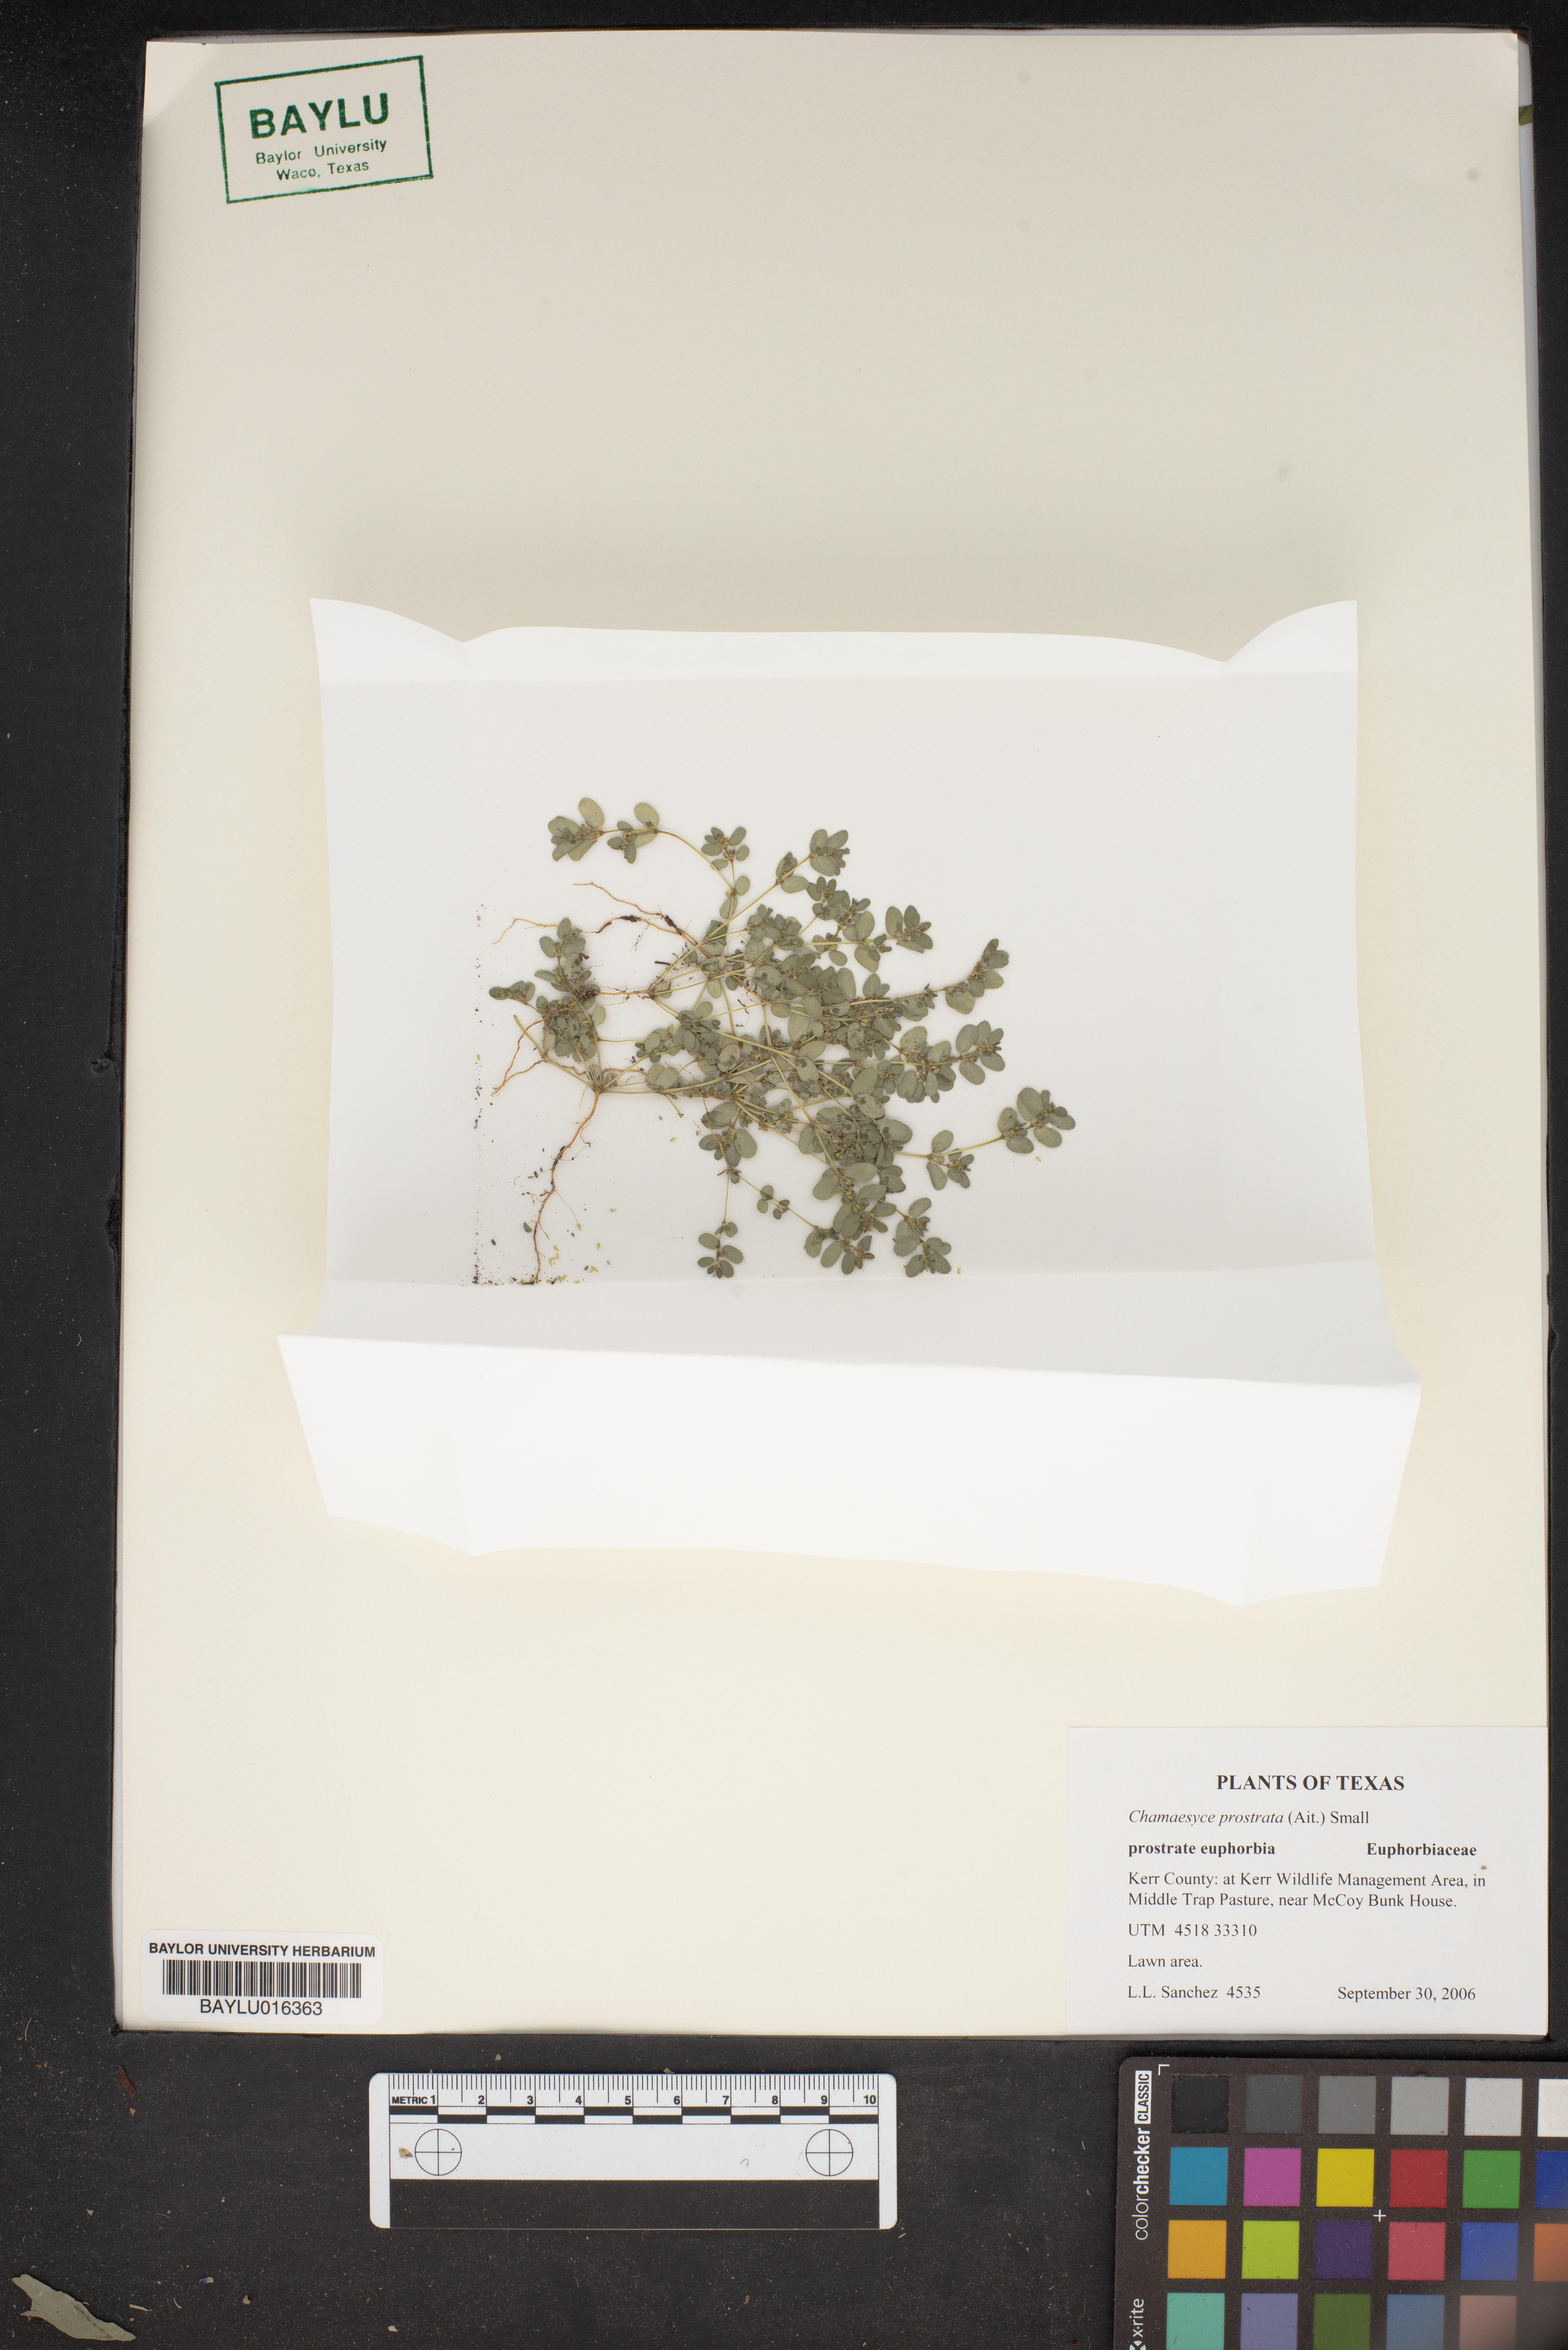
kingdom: Plantae
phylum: Tracheophyta
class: Magnoliopsida
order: Malpighiales
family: Euphorbiaceae
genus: Euphorbia
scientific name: Euphorbia prostrata
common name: Prostrate sandmat
